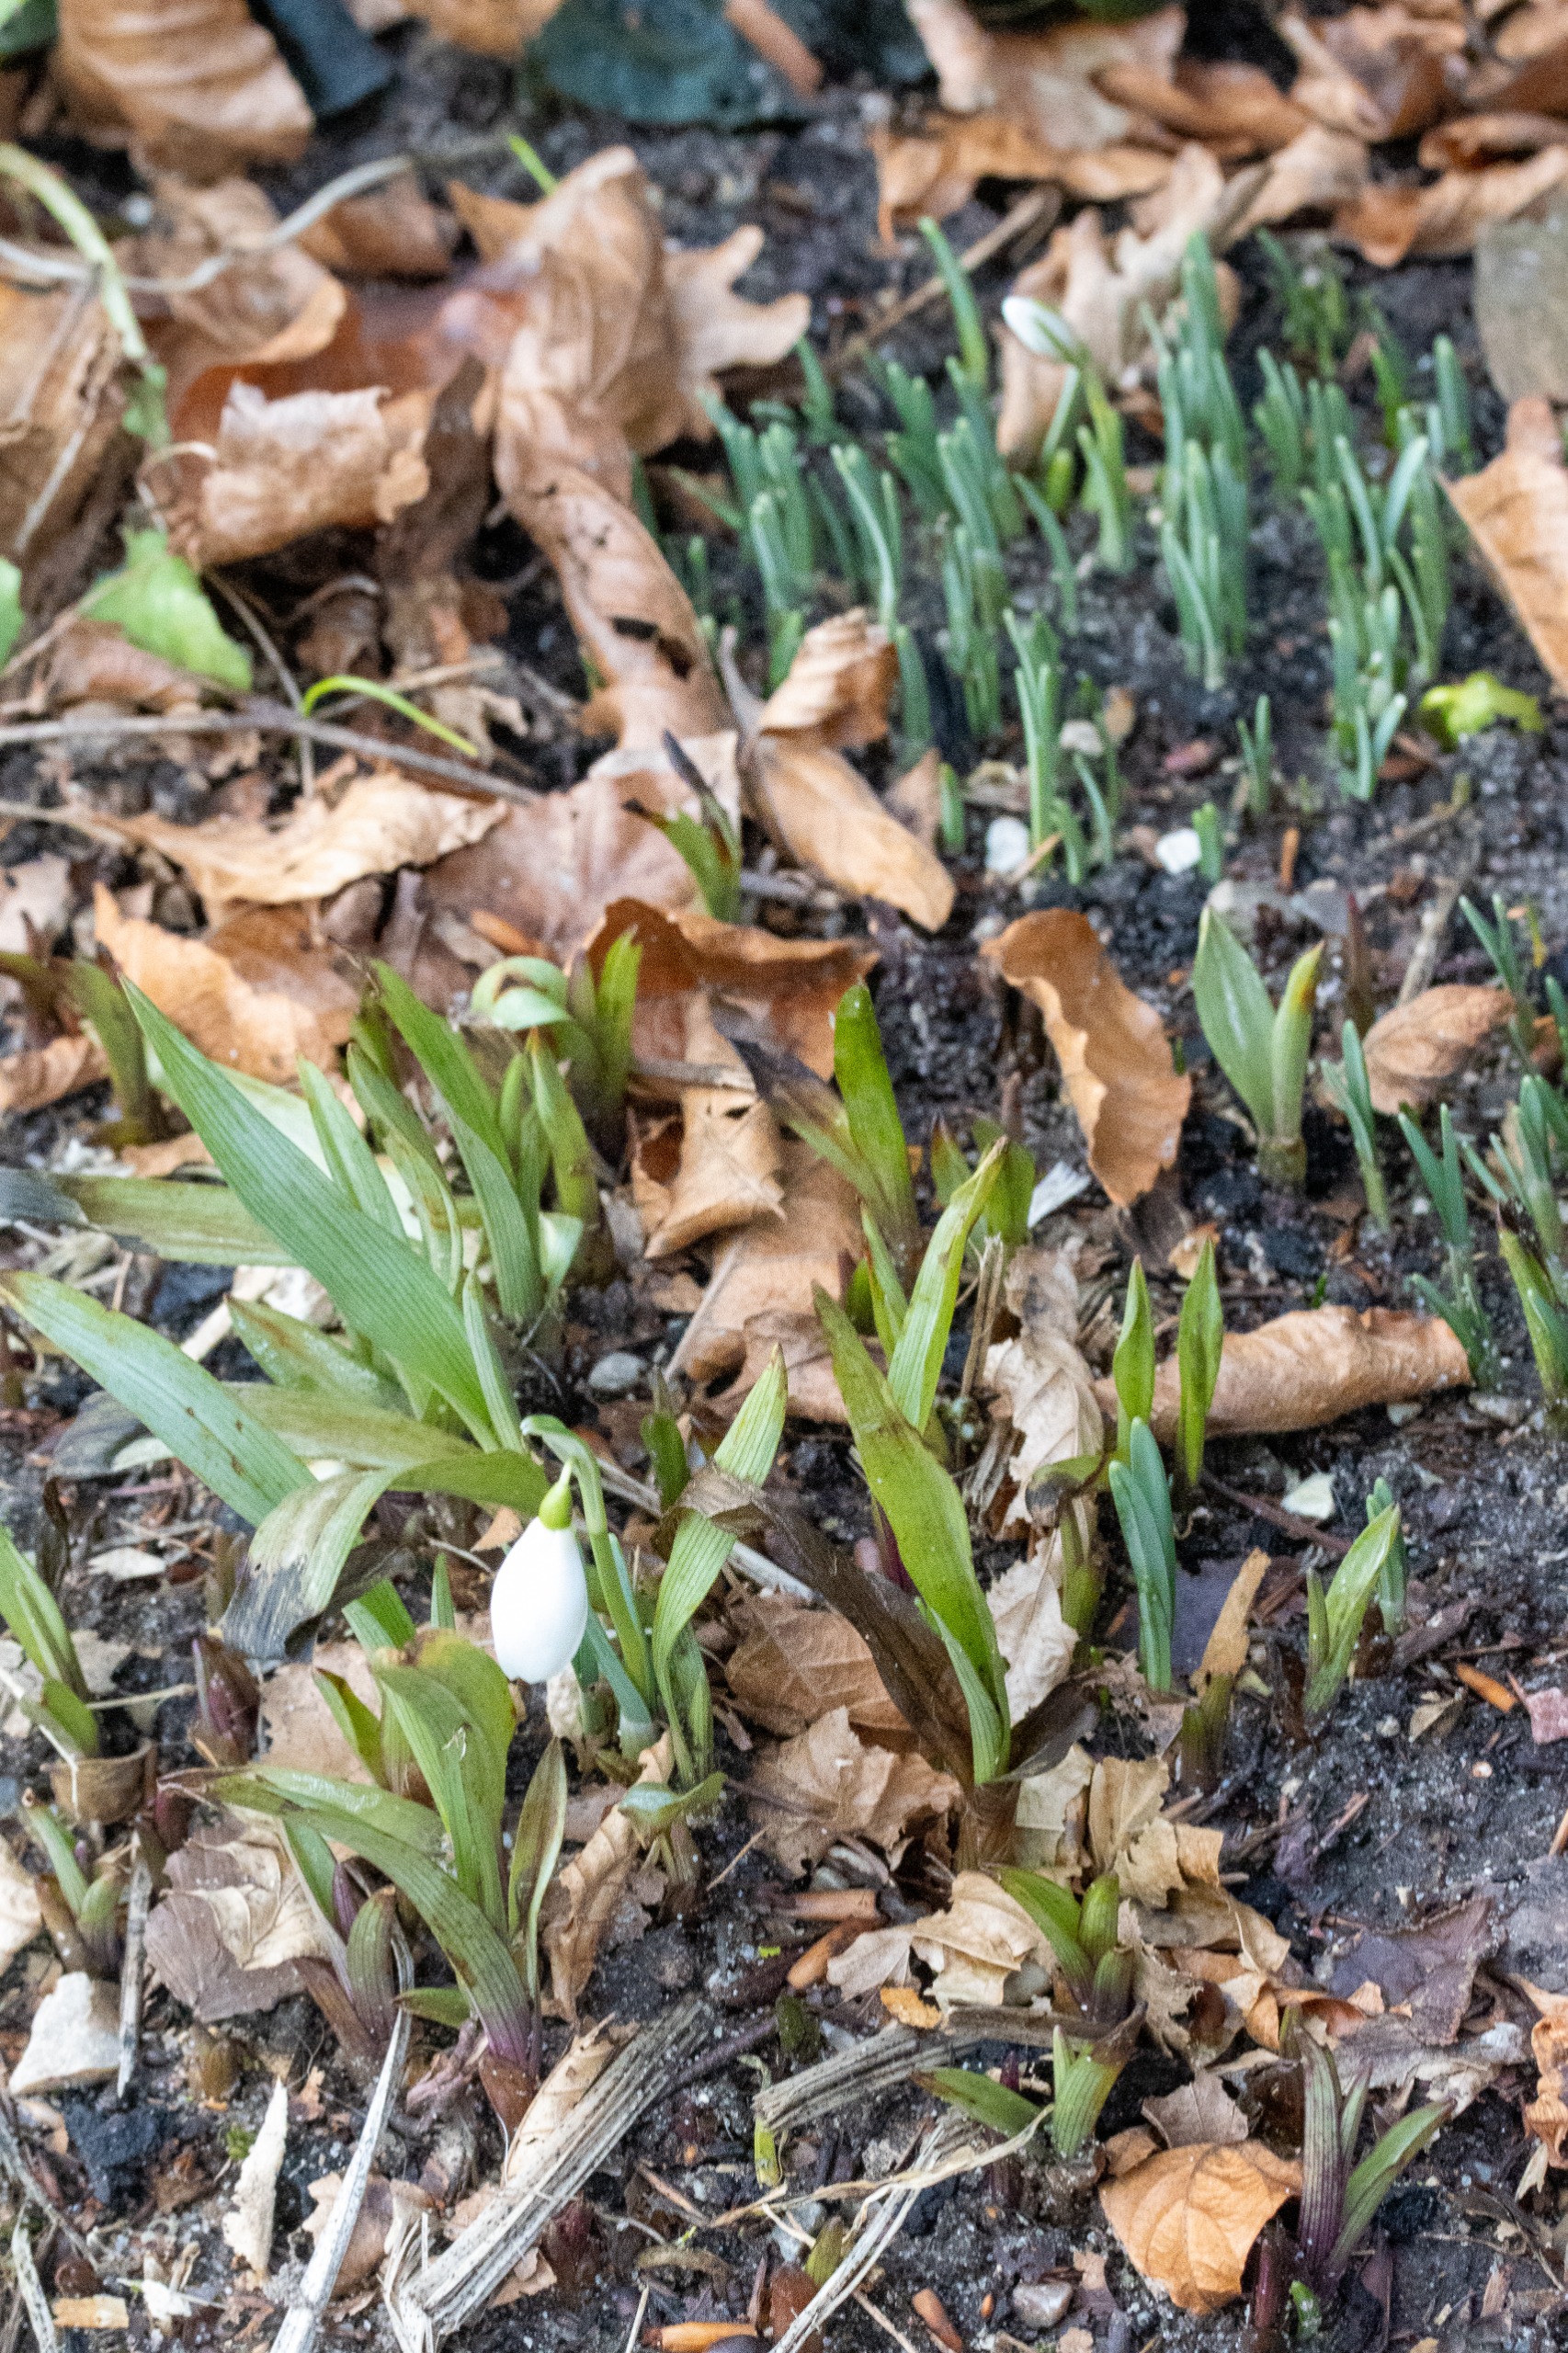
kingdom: Plantae
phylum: Tracheophyta
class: Liliopsida
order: Asparagales
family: Amaryllidaceae
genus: Galanthus
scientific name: Galanthus nivalis
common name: Vintergæk
